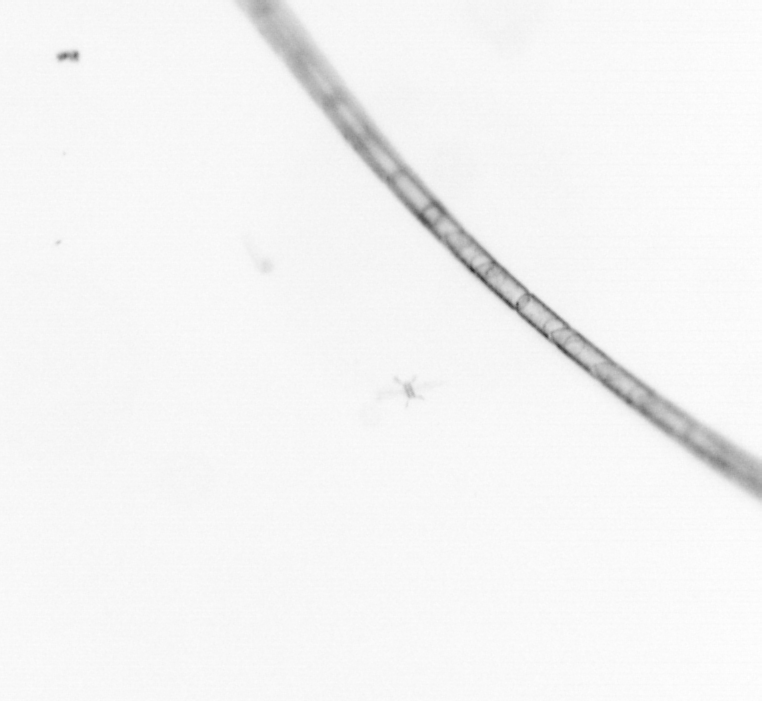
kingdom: Chromista
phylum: Ochrophyta
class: Bacillariophyceae
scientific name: Bacillariophyceae
